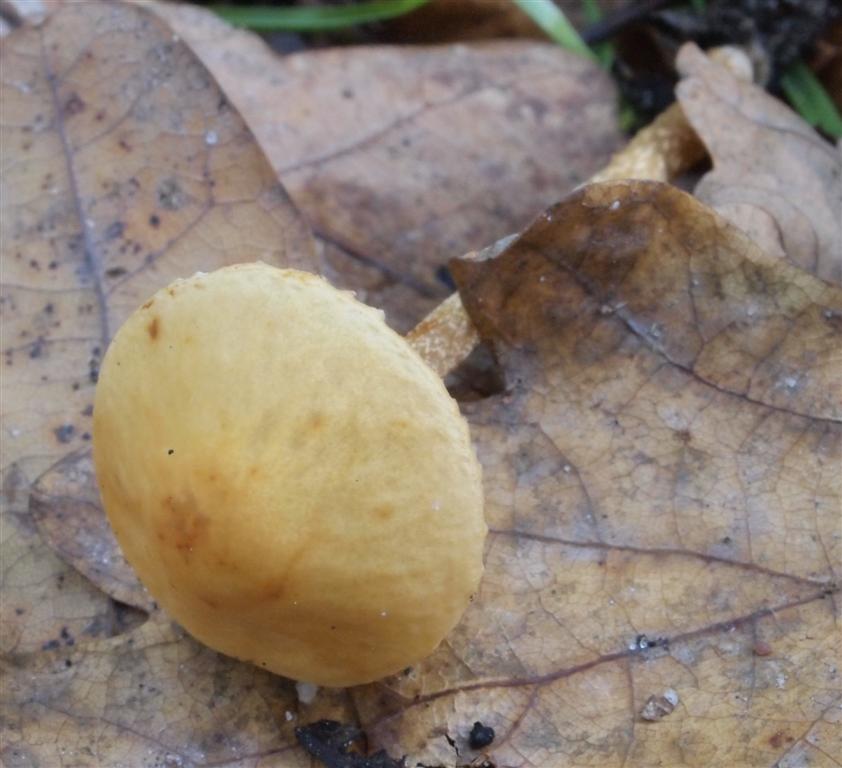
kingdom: Fungi
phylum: Basidiomycota
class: Agaricomycetes
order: Agaricales
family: Bolbitiaceae
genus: Conocybe
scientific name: Conocybe nemoralis
